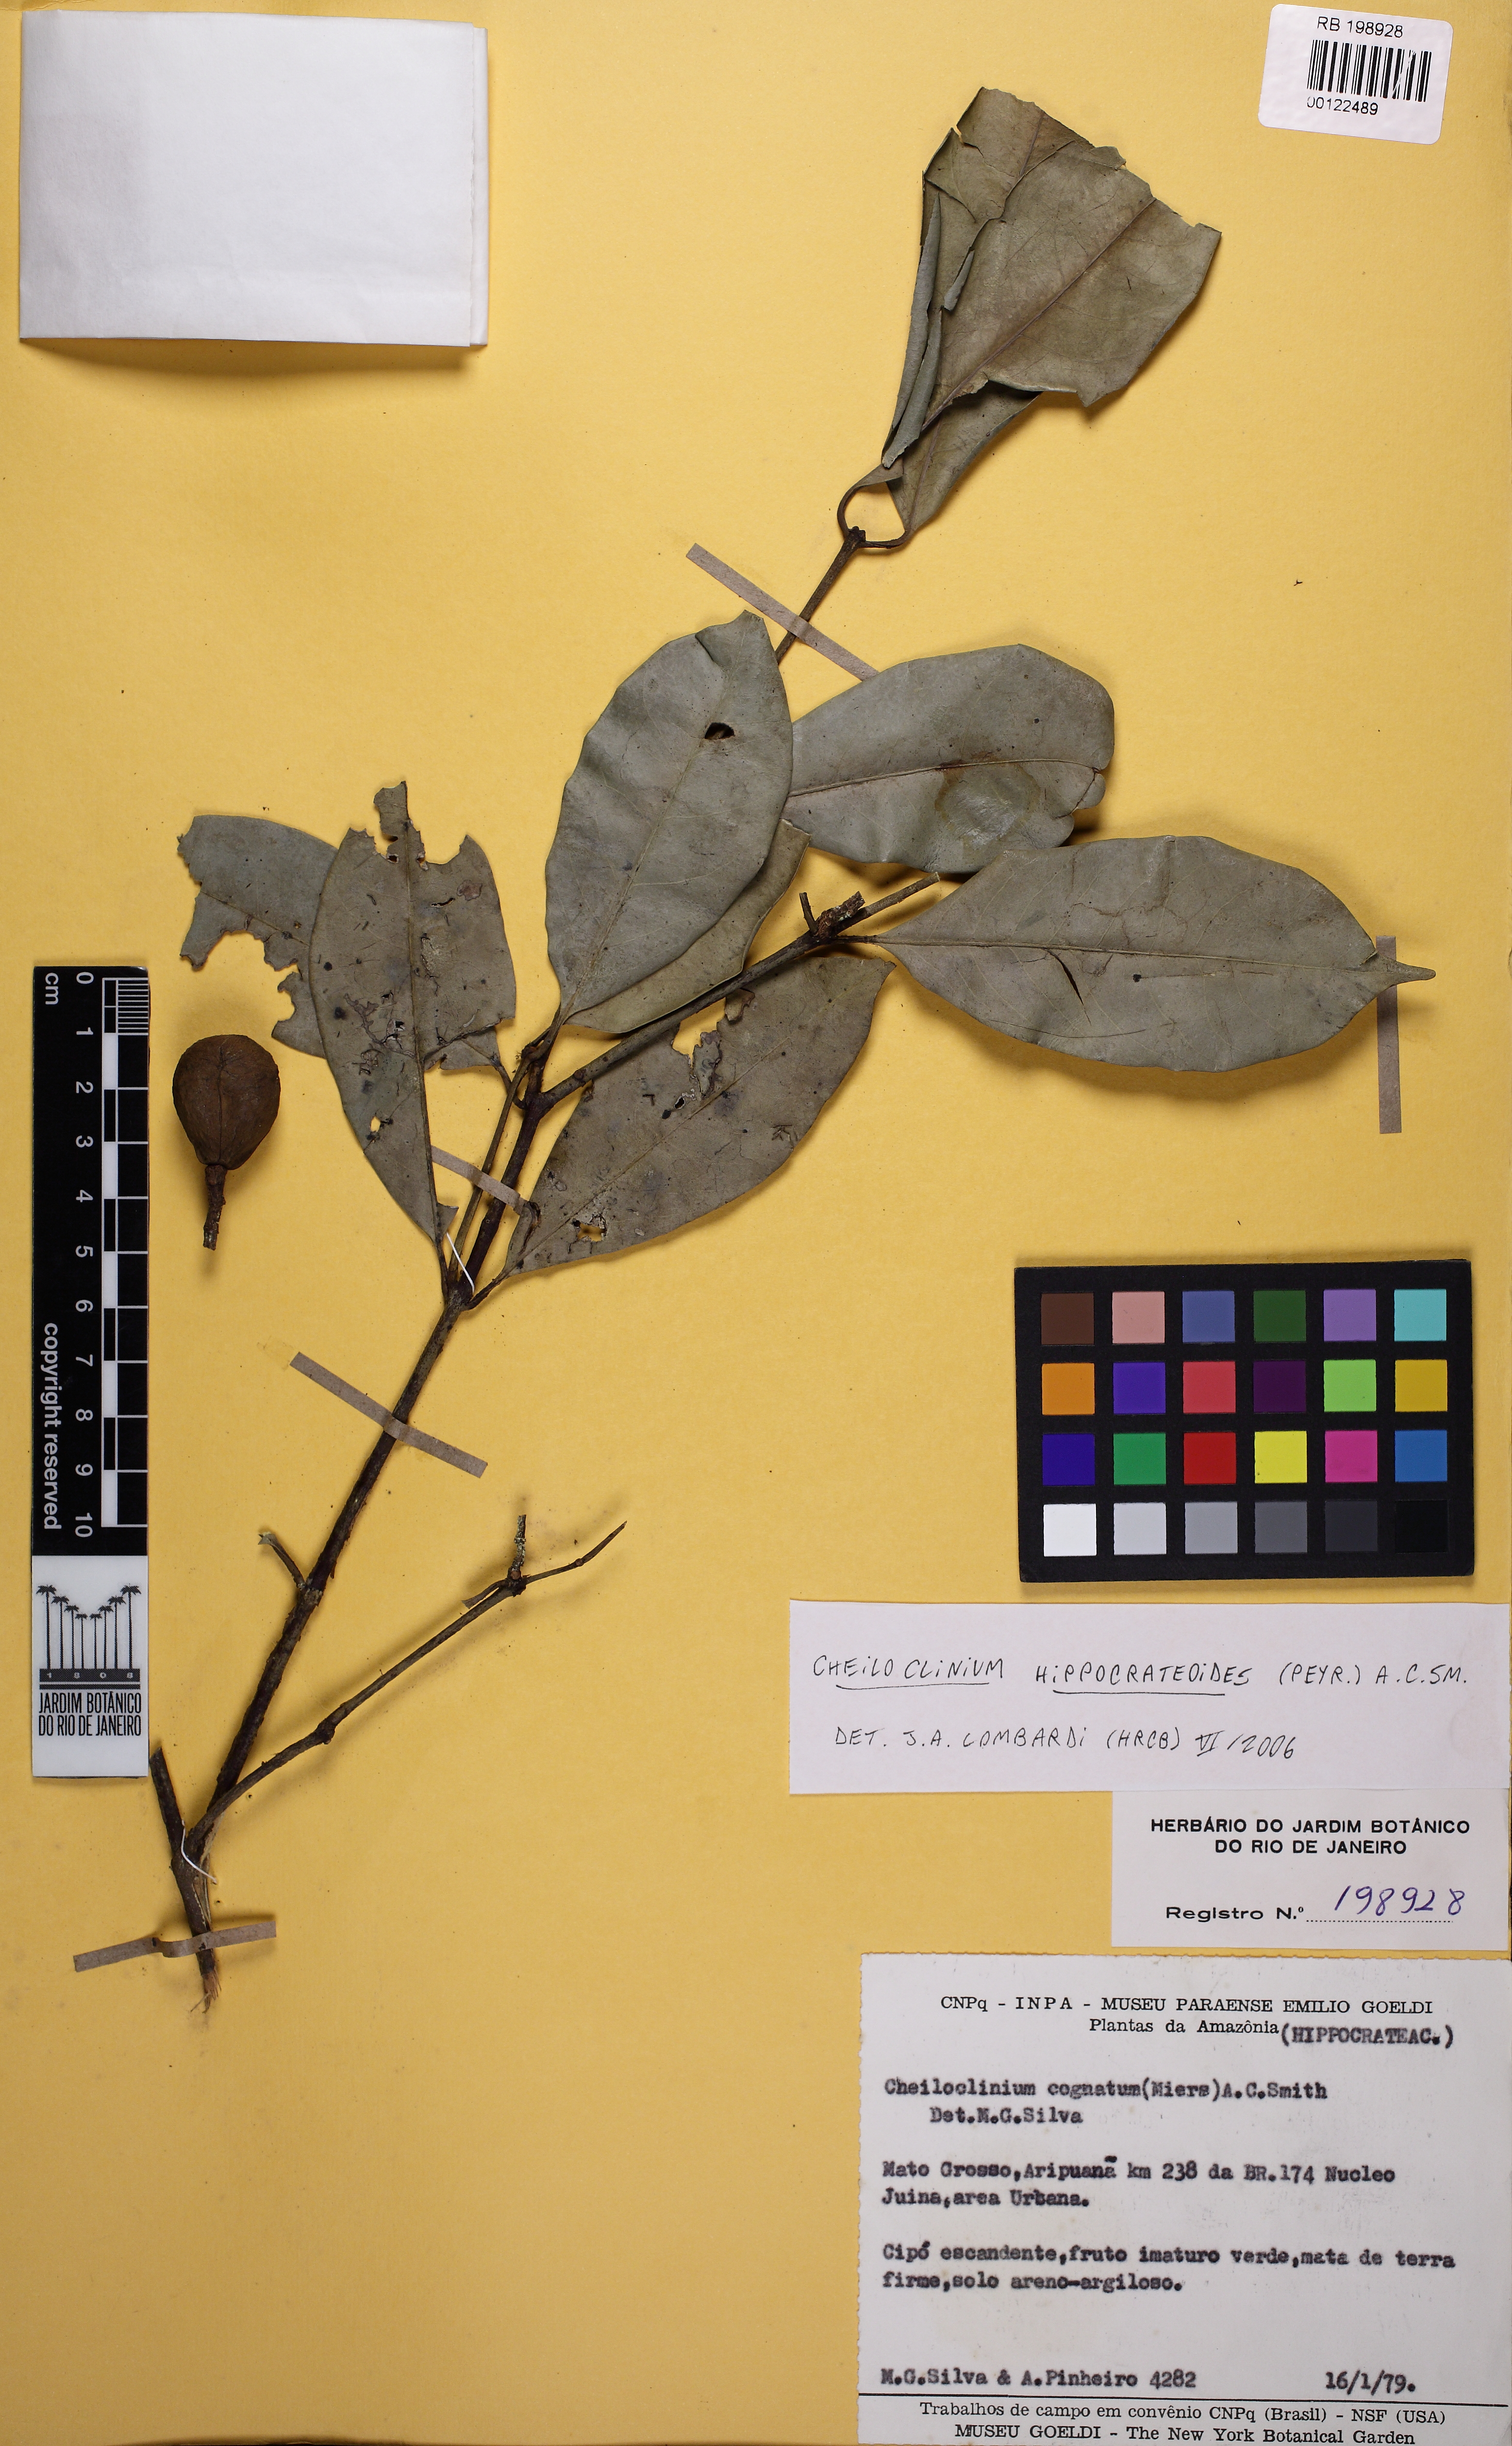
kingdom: Plantae
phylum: Tracheophyta
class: Magnoliopsida
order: Celastrales
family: Celastraceae
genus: Cheiloclinium
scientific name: Cheiloclinium hippocrateoides
